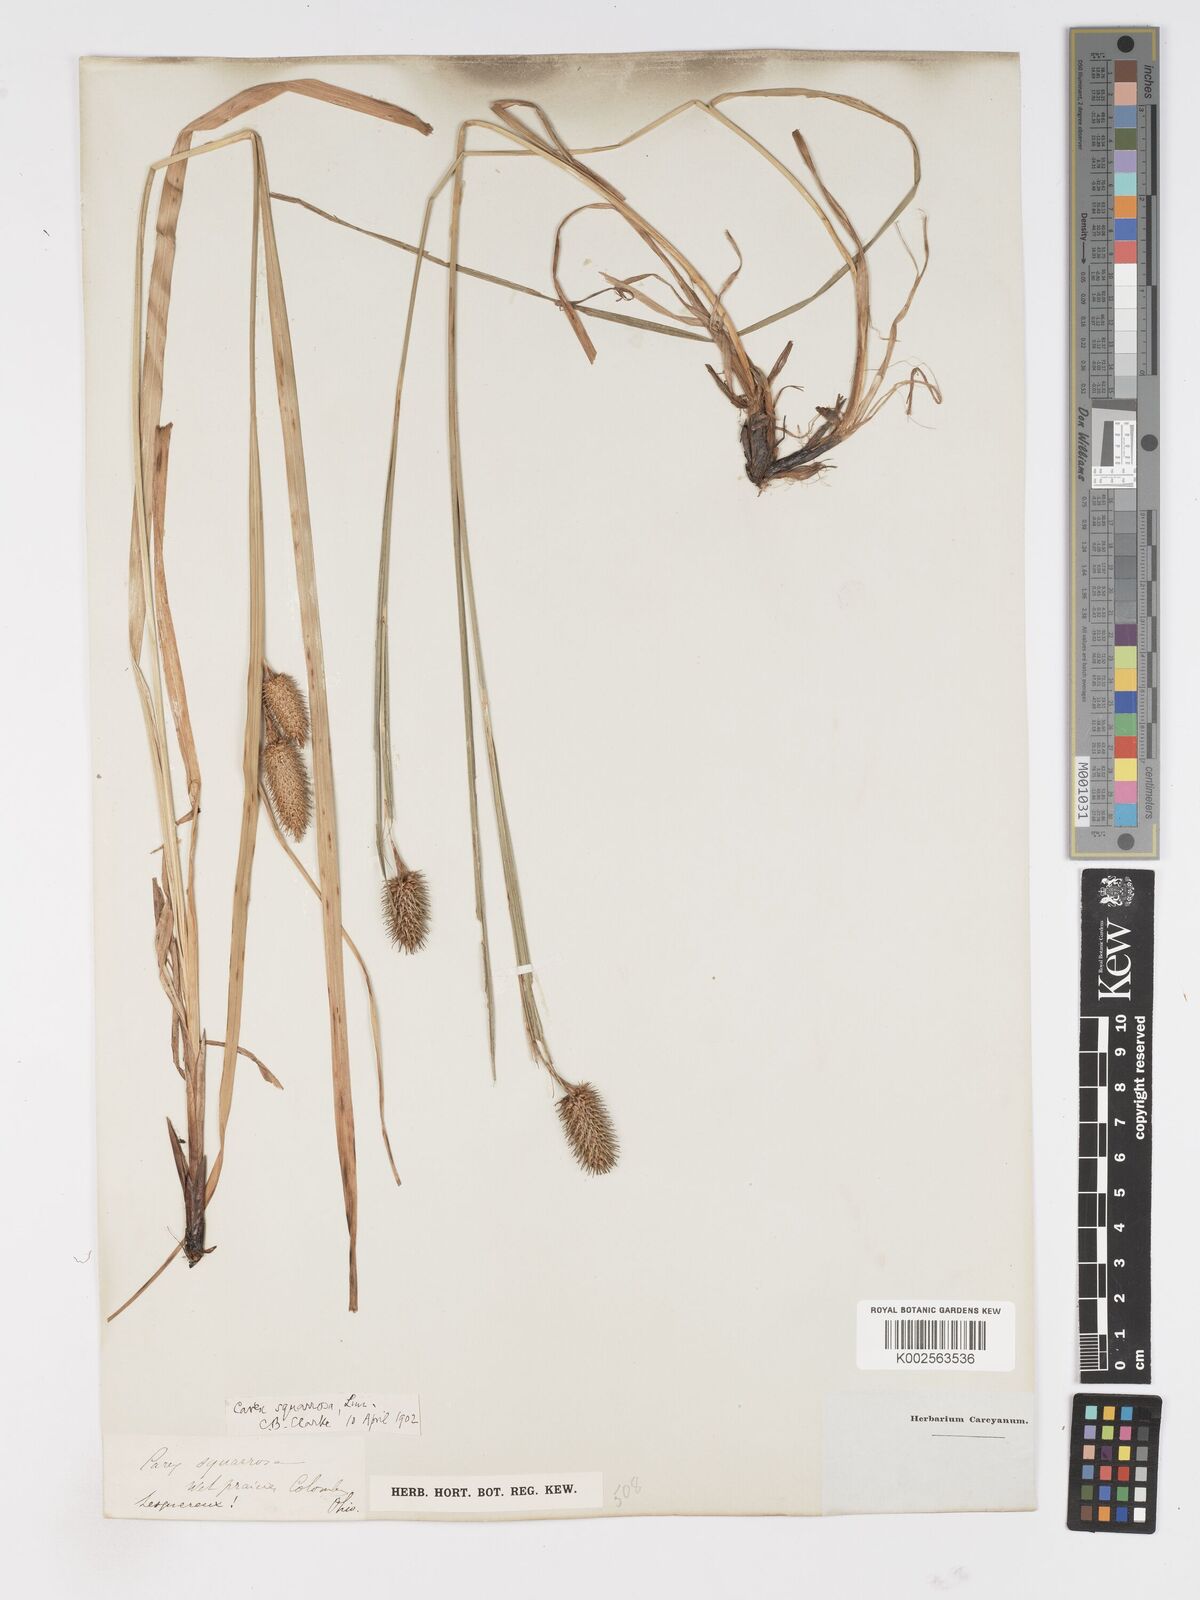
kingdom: Plantae
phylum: Tracheophyta
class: Liliopsida
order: Poales
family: Cyperaceae
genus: Carex
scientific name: Carex squarrosa
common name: Narrow-leaved cattail sedge
